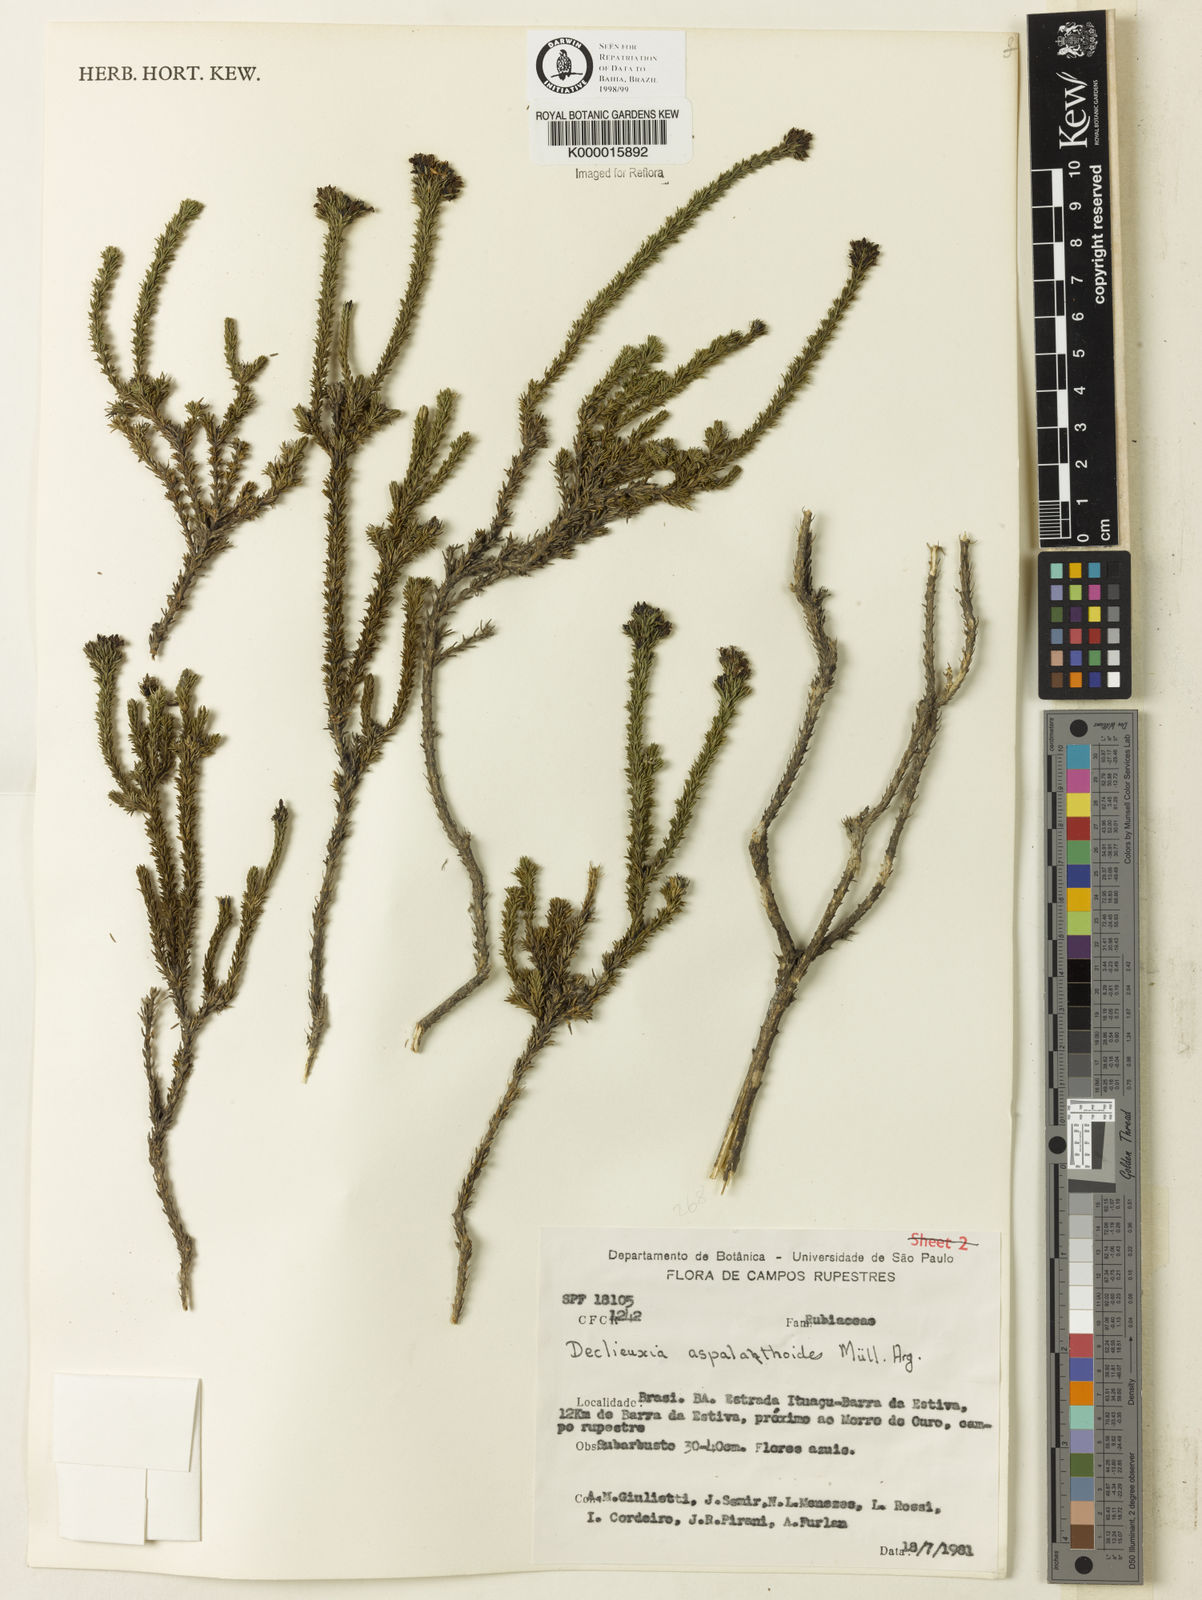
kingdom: Plantae
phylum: Tracheophyta
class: Magnoliopsida
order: Gentianales
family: Rubiaceae
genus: Declieuxia
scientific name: Declieuxia aspalathoides
